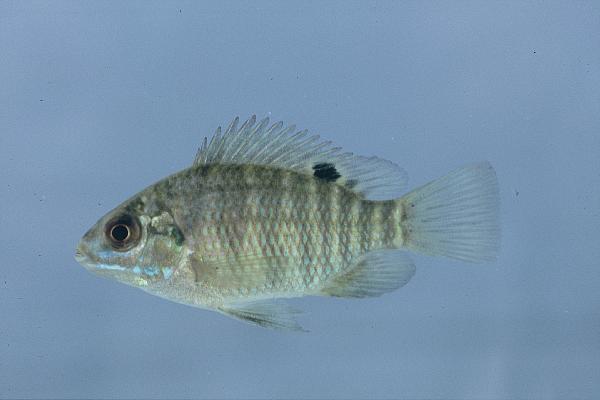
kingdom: Animalia
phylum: Chordata
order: Perciformes
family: Cichlidae
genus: Tilapia
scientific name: Tilapia sparrmanii
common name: Banded tilapia
